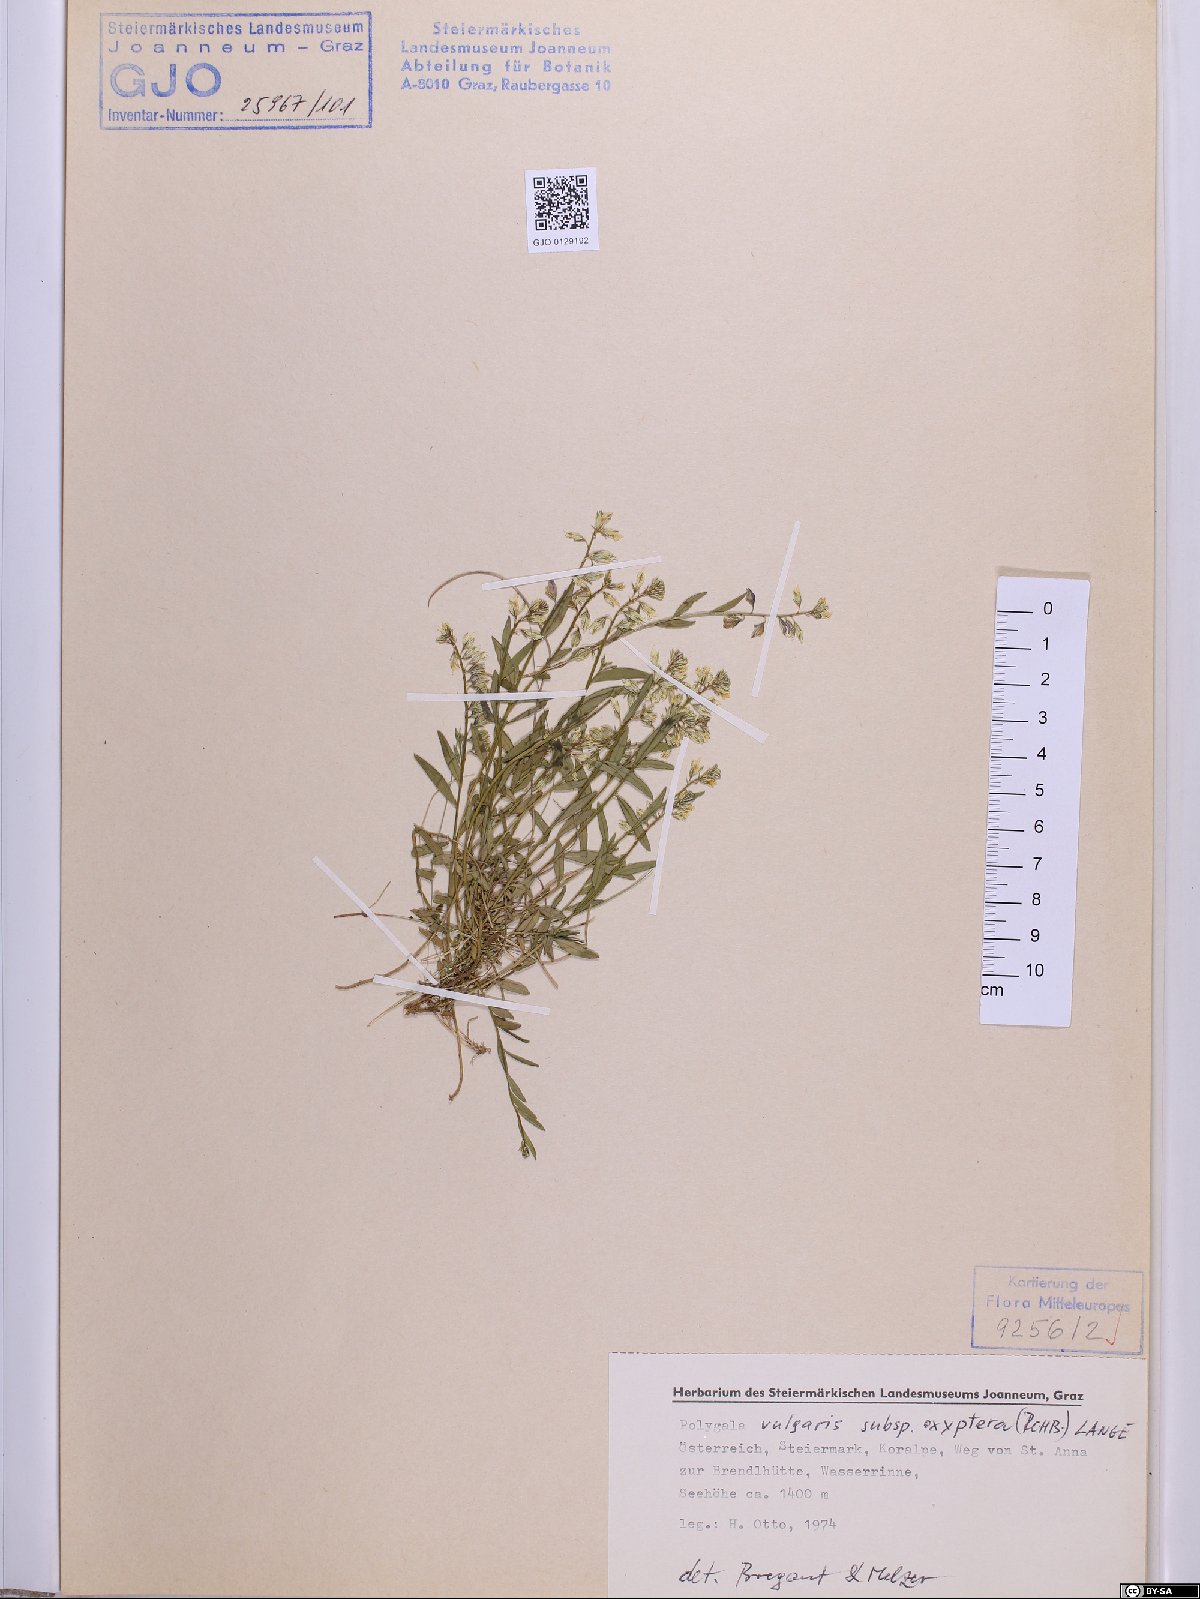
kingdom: Plantae
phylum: Tracheophyta
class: Magnoliopsida
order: Fabales
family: Polygalaceae
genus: Polygala
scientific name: Polygala vulgaris
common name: Common milkwort
